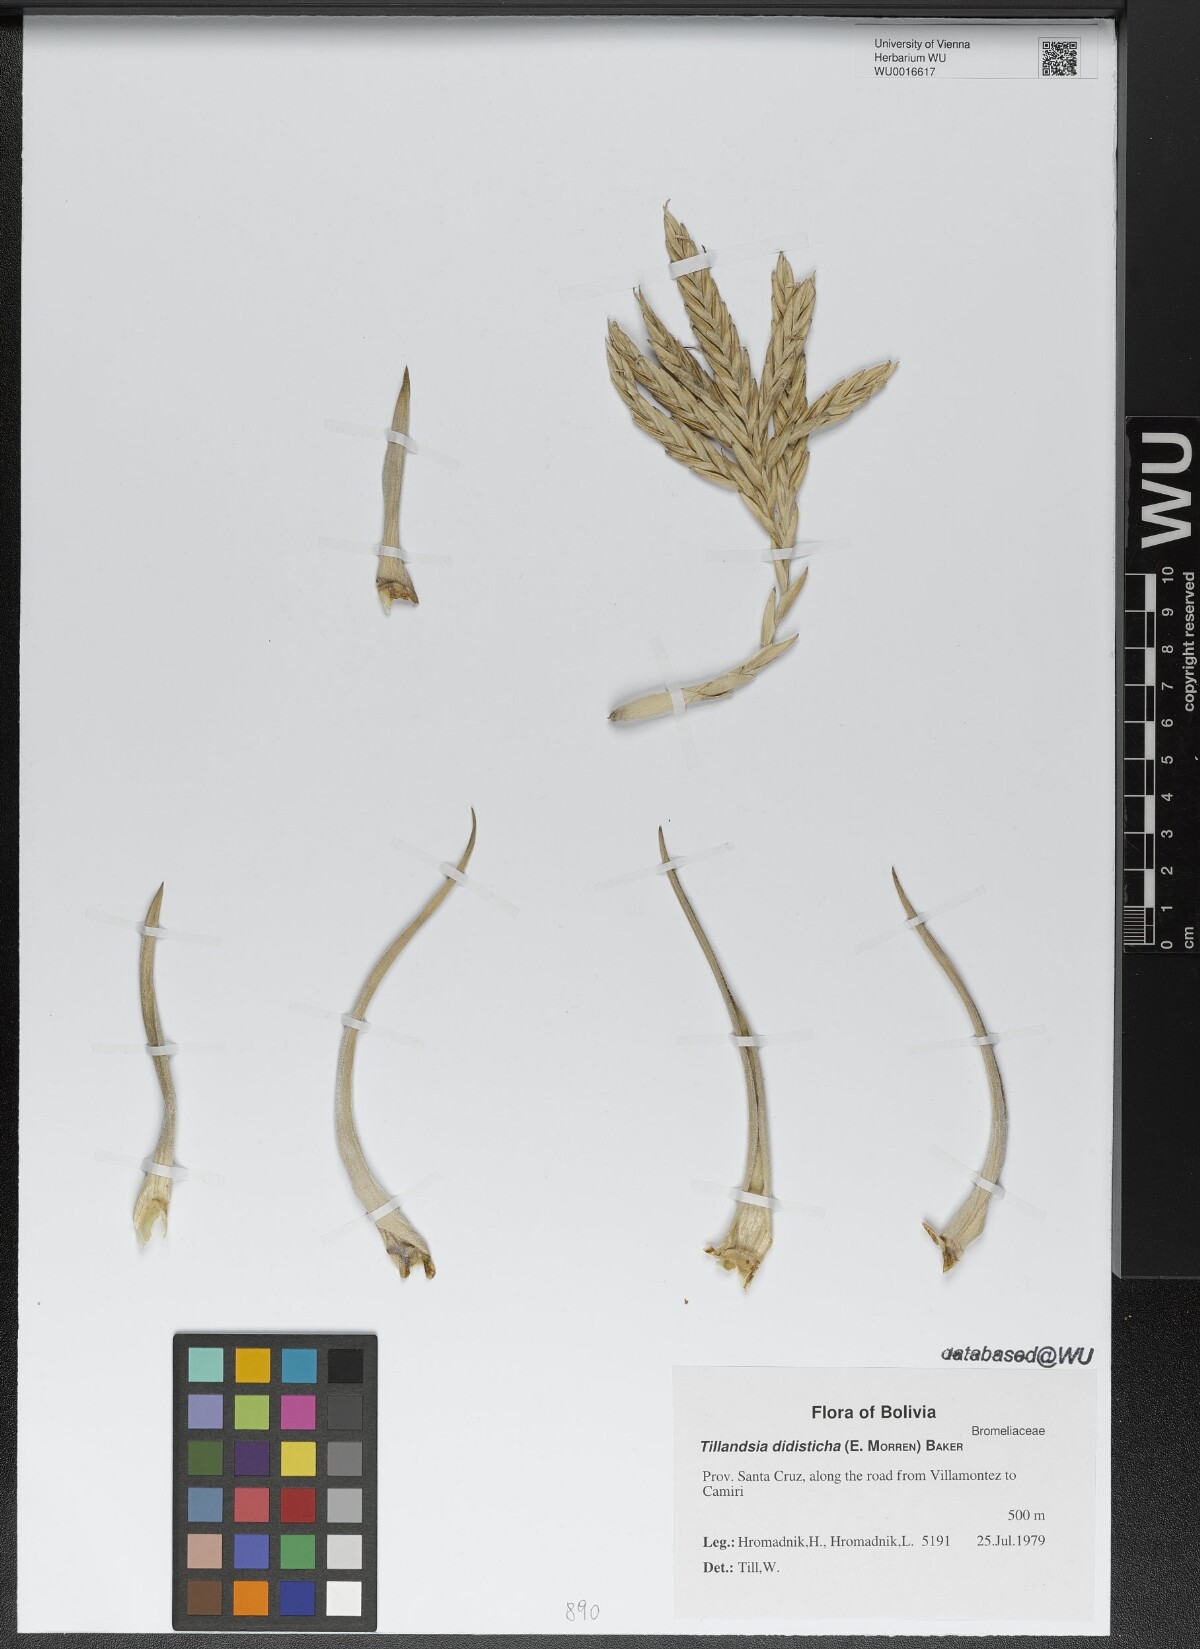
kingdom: Plantae
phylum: Tracheophyta
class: Liliopsida
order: Poales
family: Bromeliaceae
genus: Tillandsia
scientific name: Tillandsia didisticha
